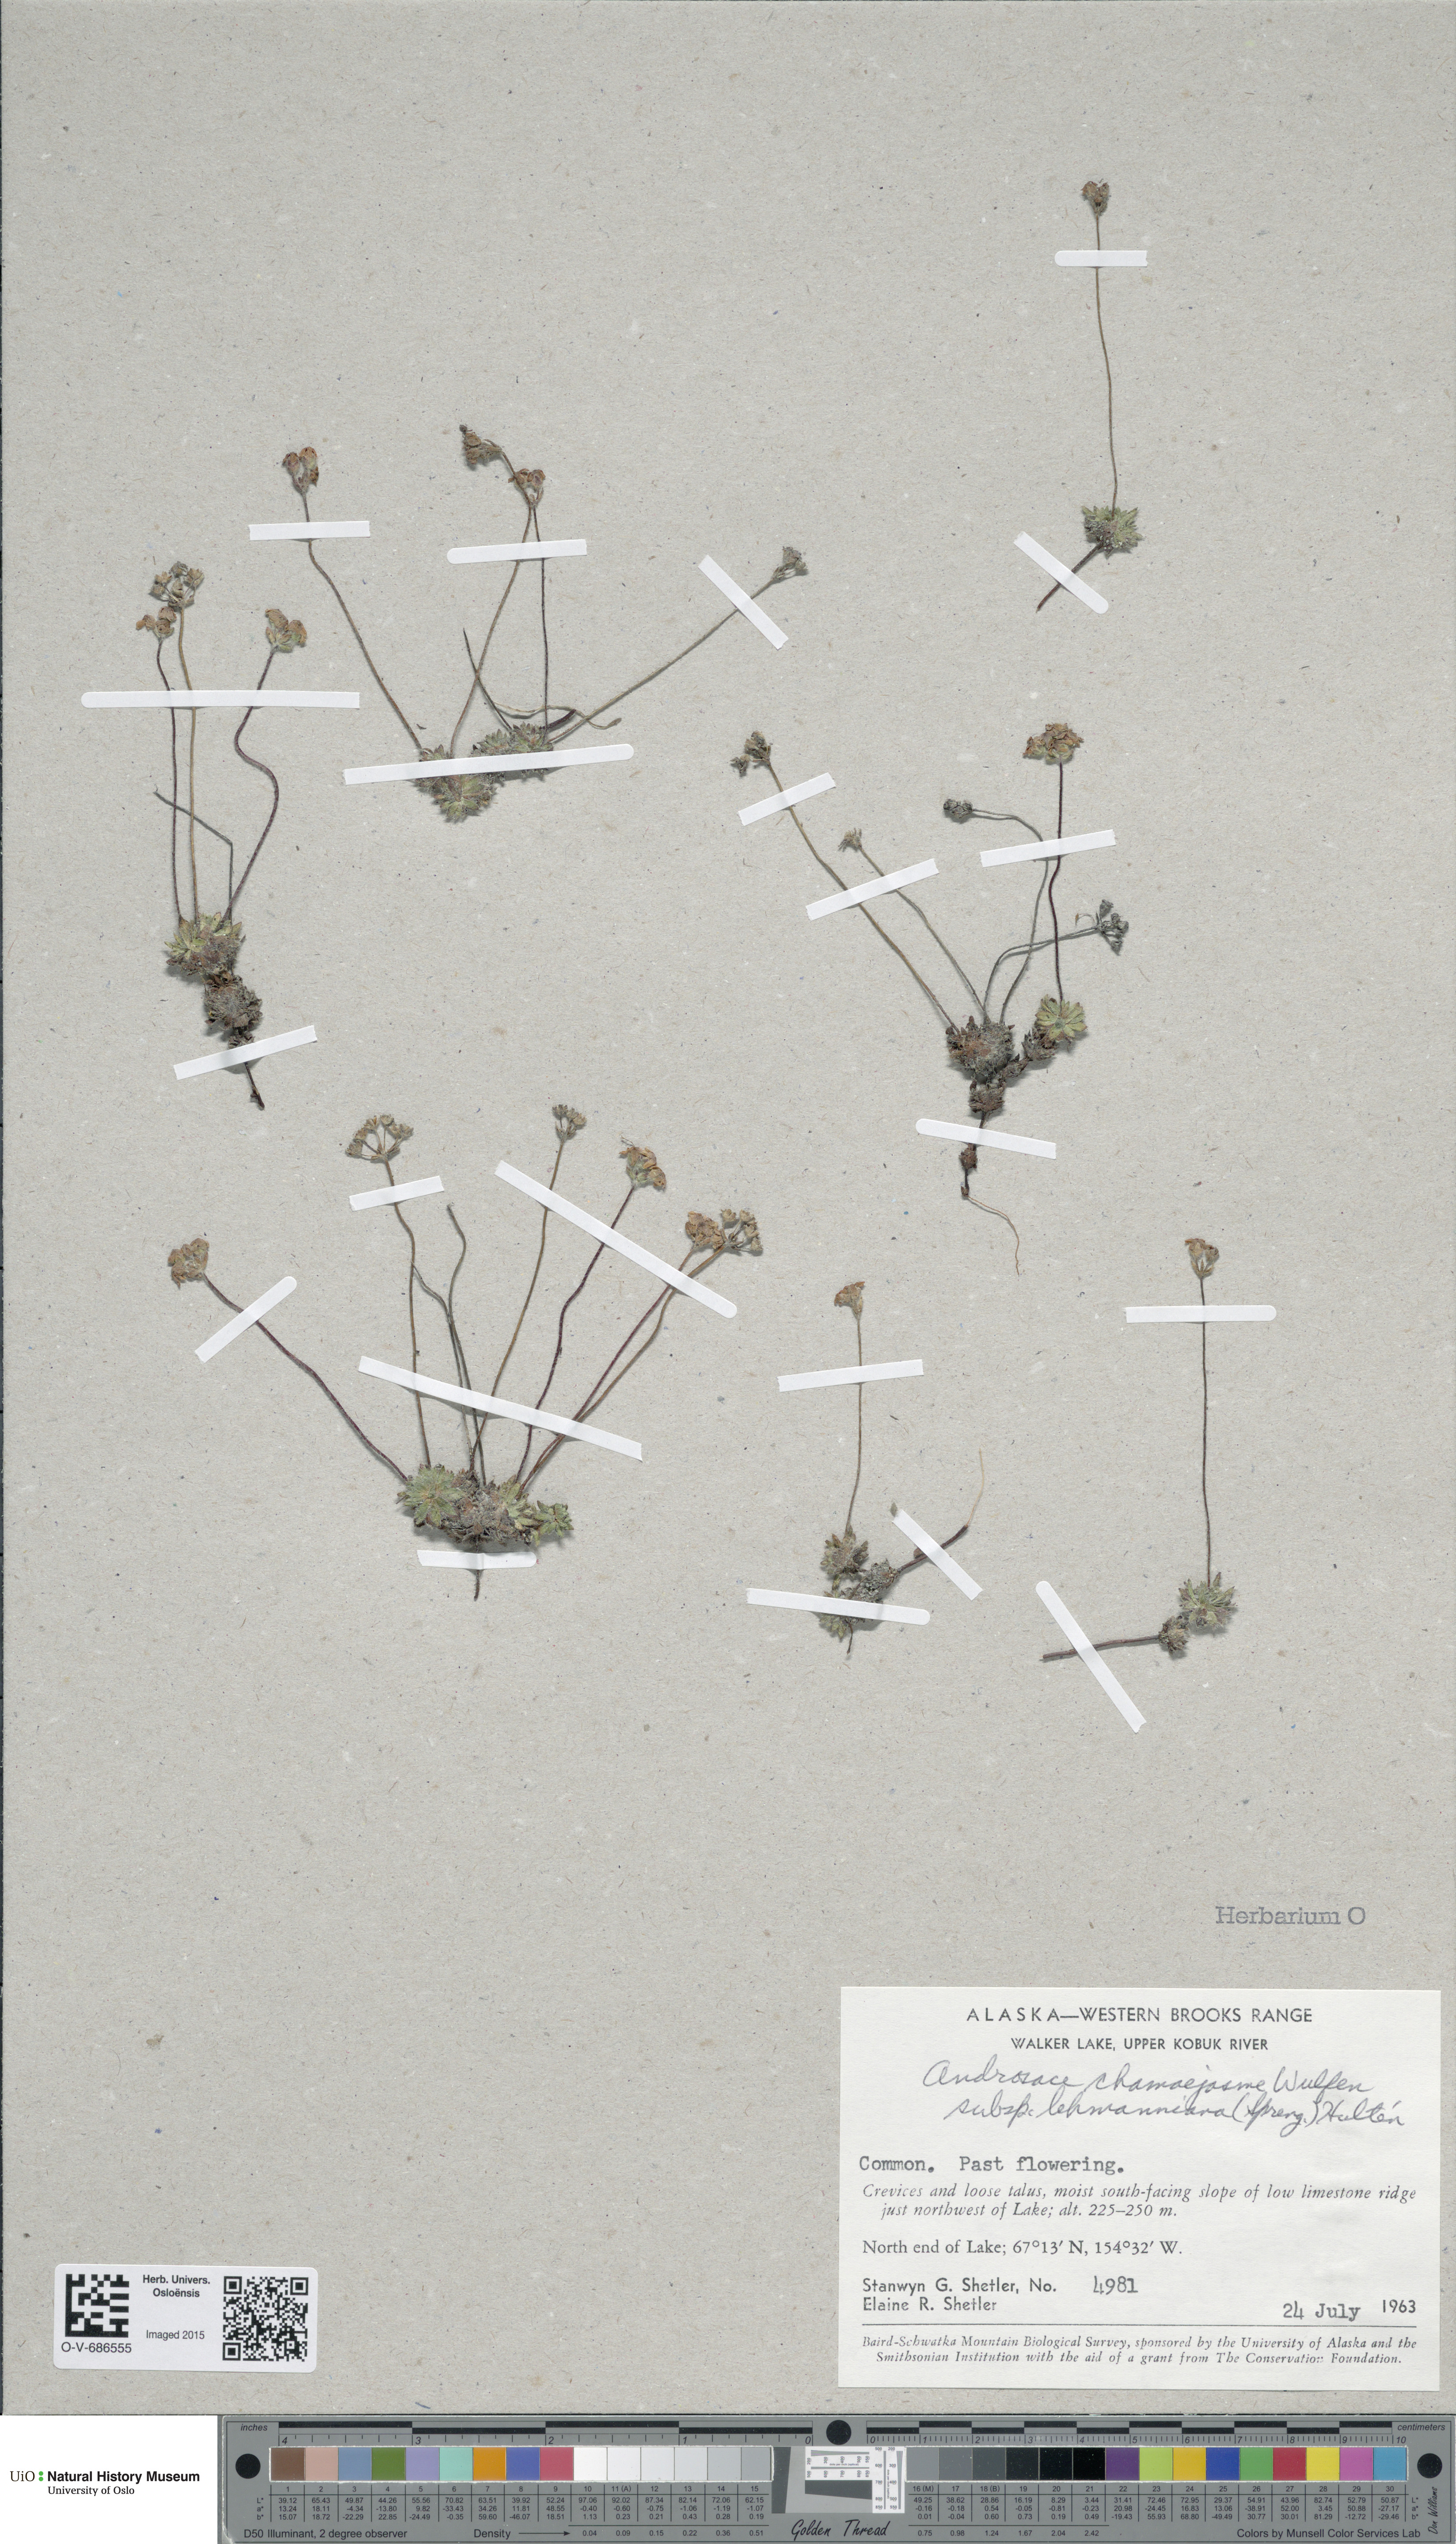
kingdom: Plantae
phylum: Tracheophyta
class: Magnoliopsida
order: Ericales
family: Primulaceae
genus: Androsace
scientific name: Androsace chamaejasme
